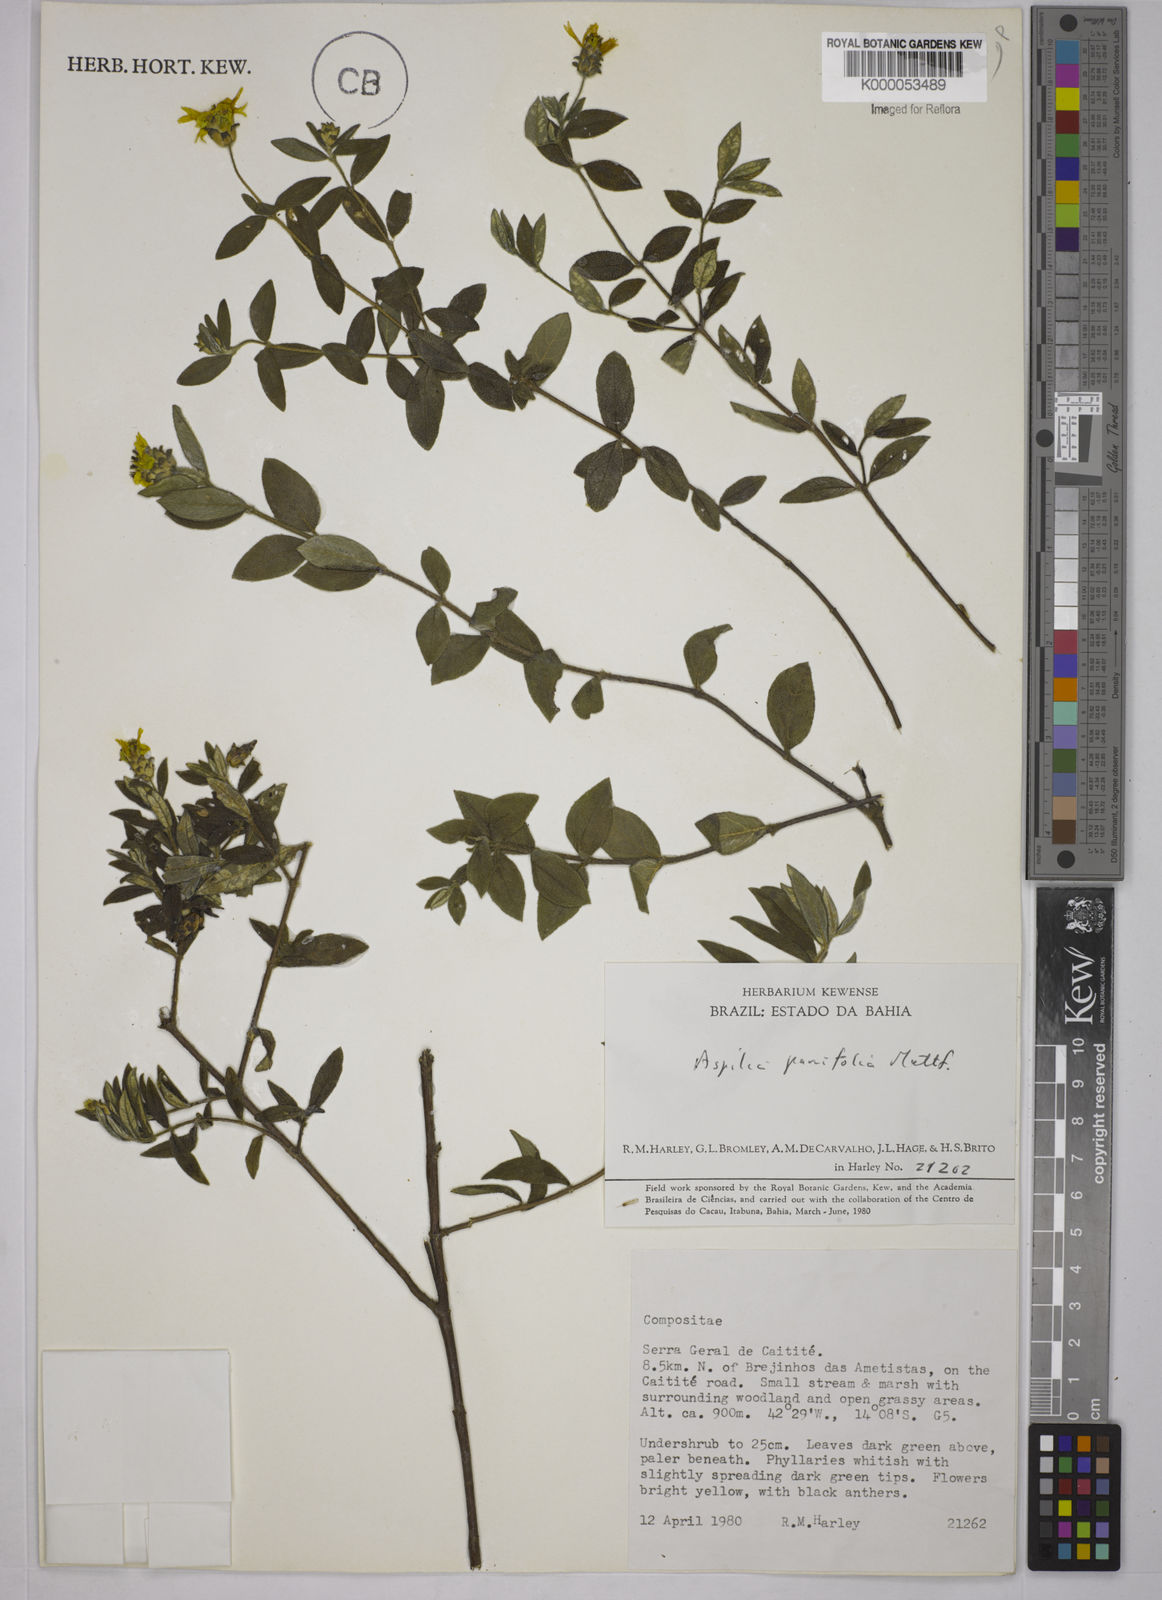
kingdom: Plantae
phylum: Tracheophyta
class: Magnoliopsida
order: Asterales
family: Asteraceae
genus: Aspilia
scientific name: Aspilia foliosa
